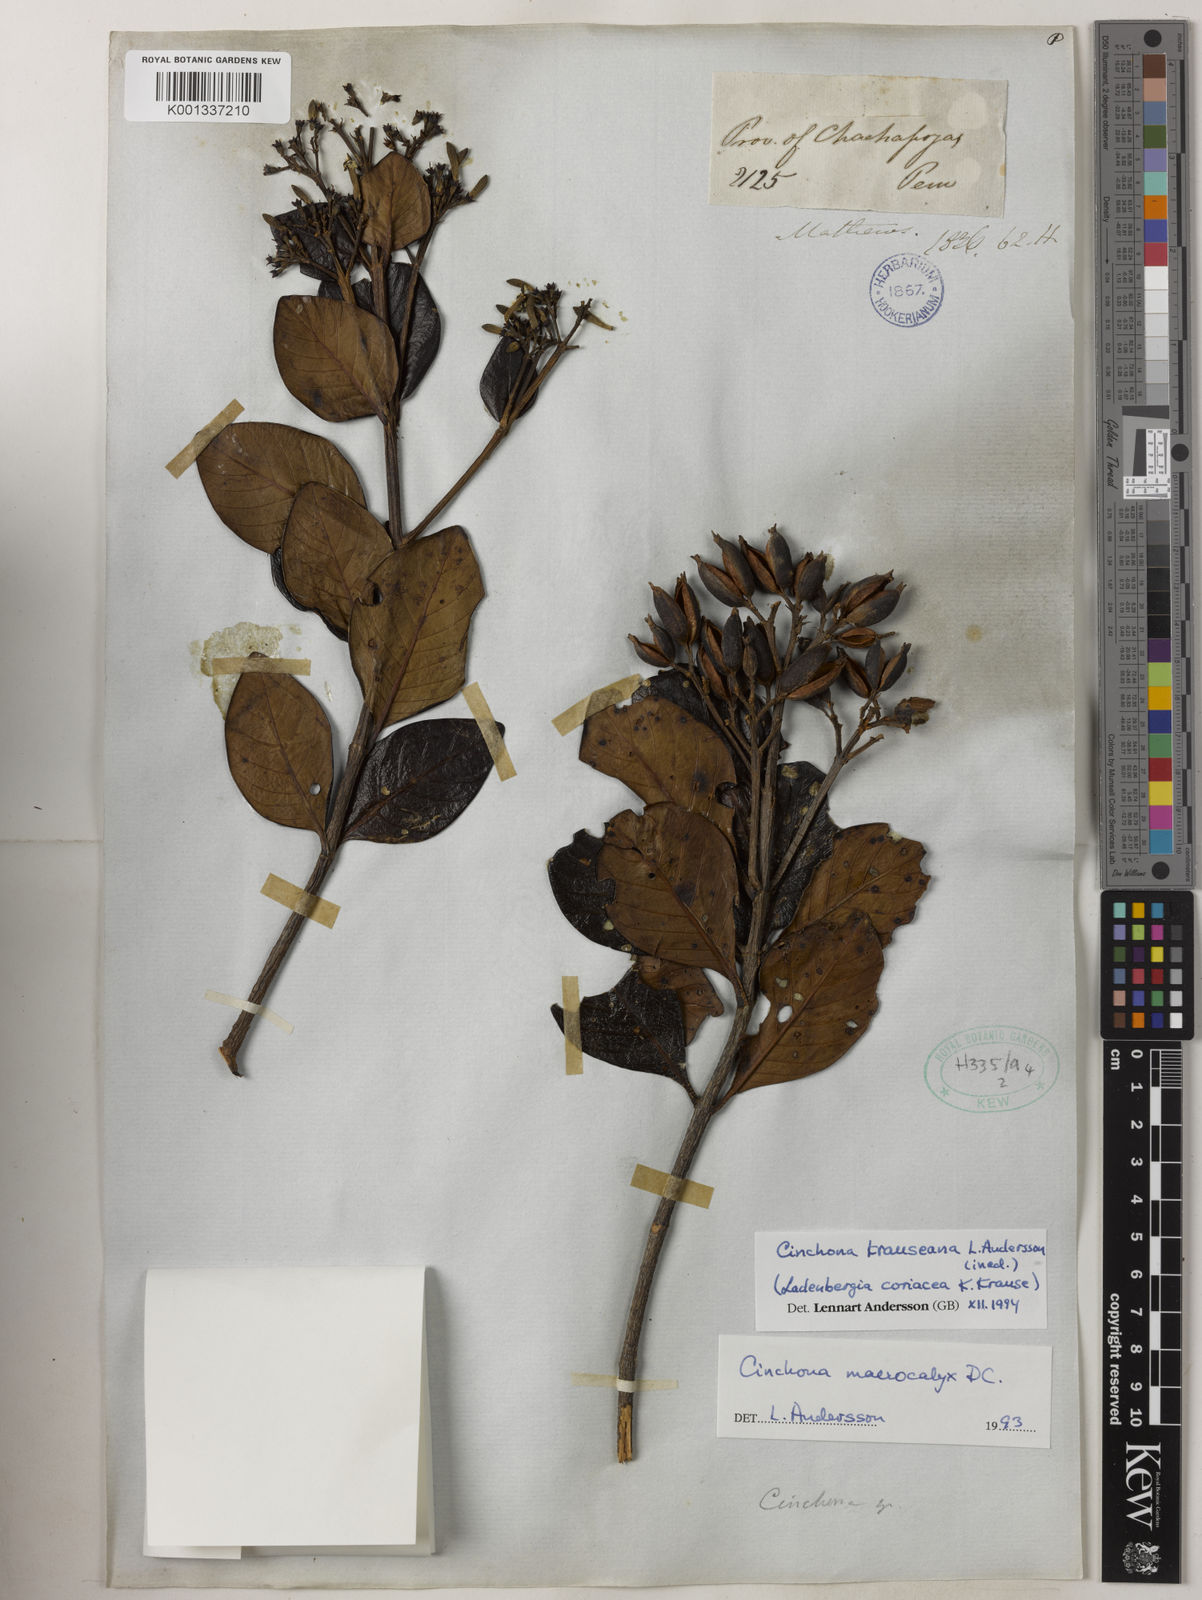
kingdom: Plantae
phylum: Tracheophyta
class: Magnoliopsida
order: Gentianales
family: Rubiaceae
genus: Cinchona
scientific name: Cinchona krauseana
